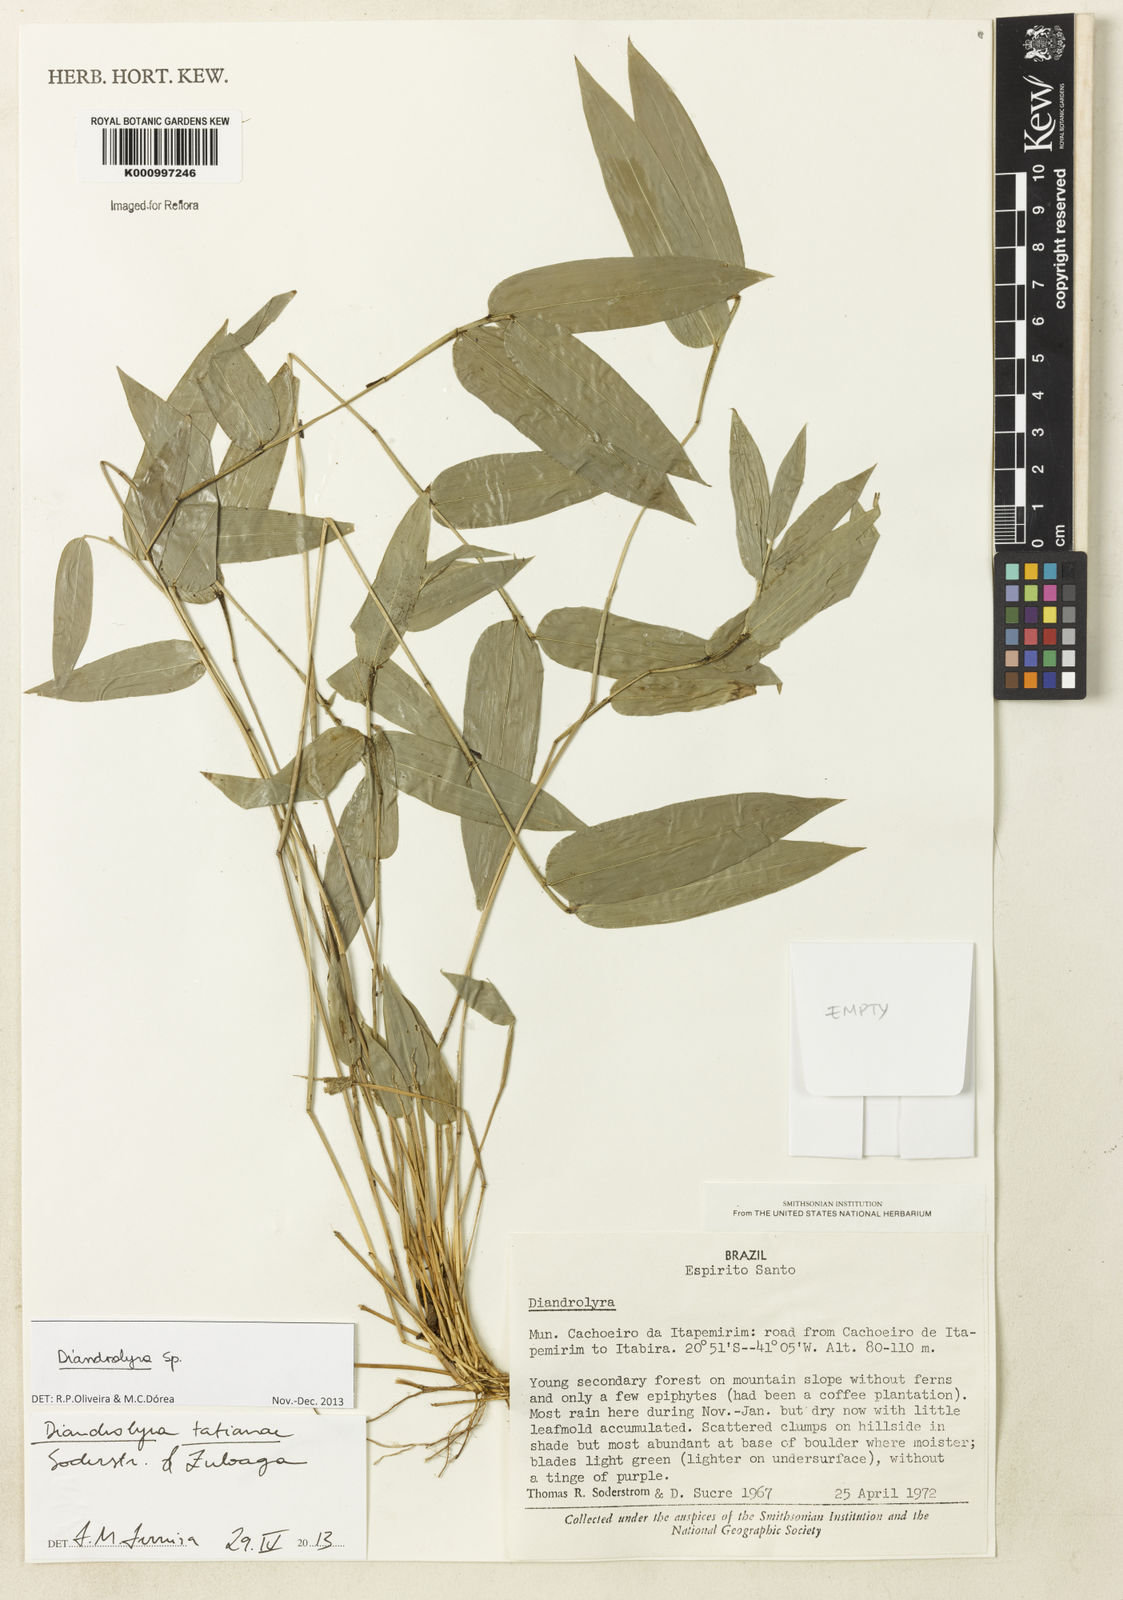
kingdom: Plantae
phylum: Tracheophyta
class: Liliopsida
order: Poales
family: Poaceae
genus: Diandrolyra
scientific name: Diandrolyra
